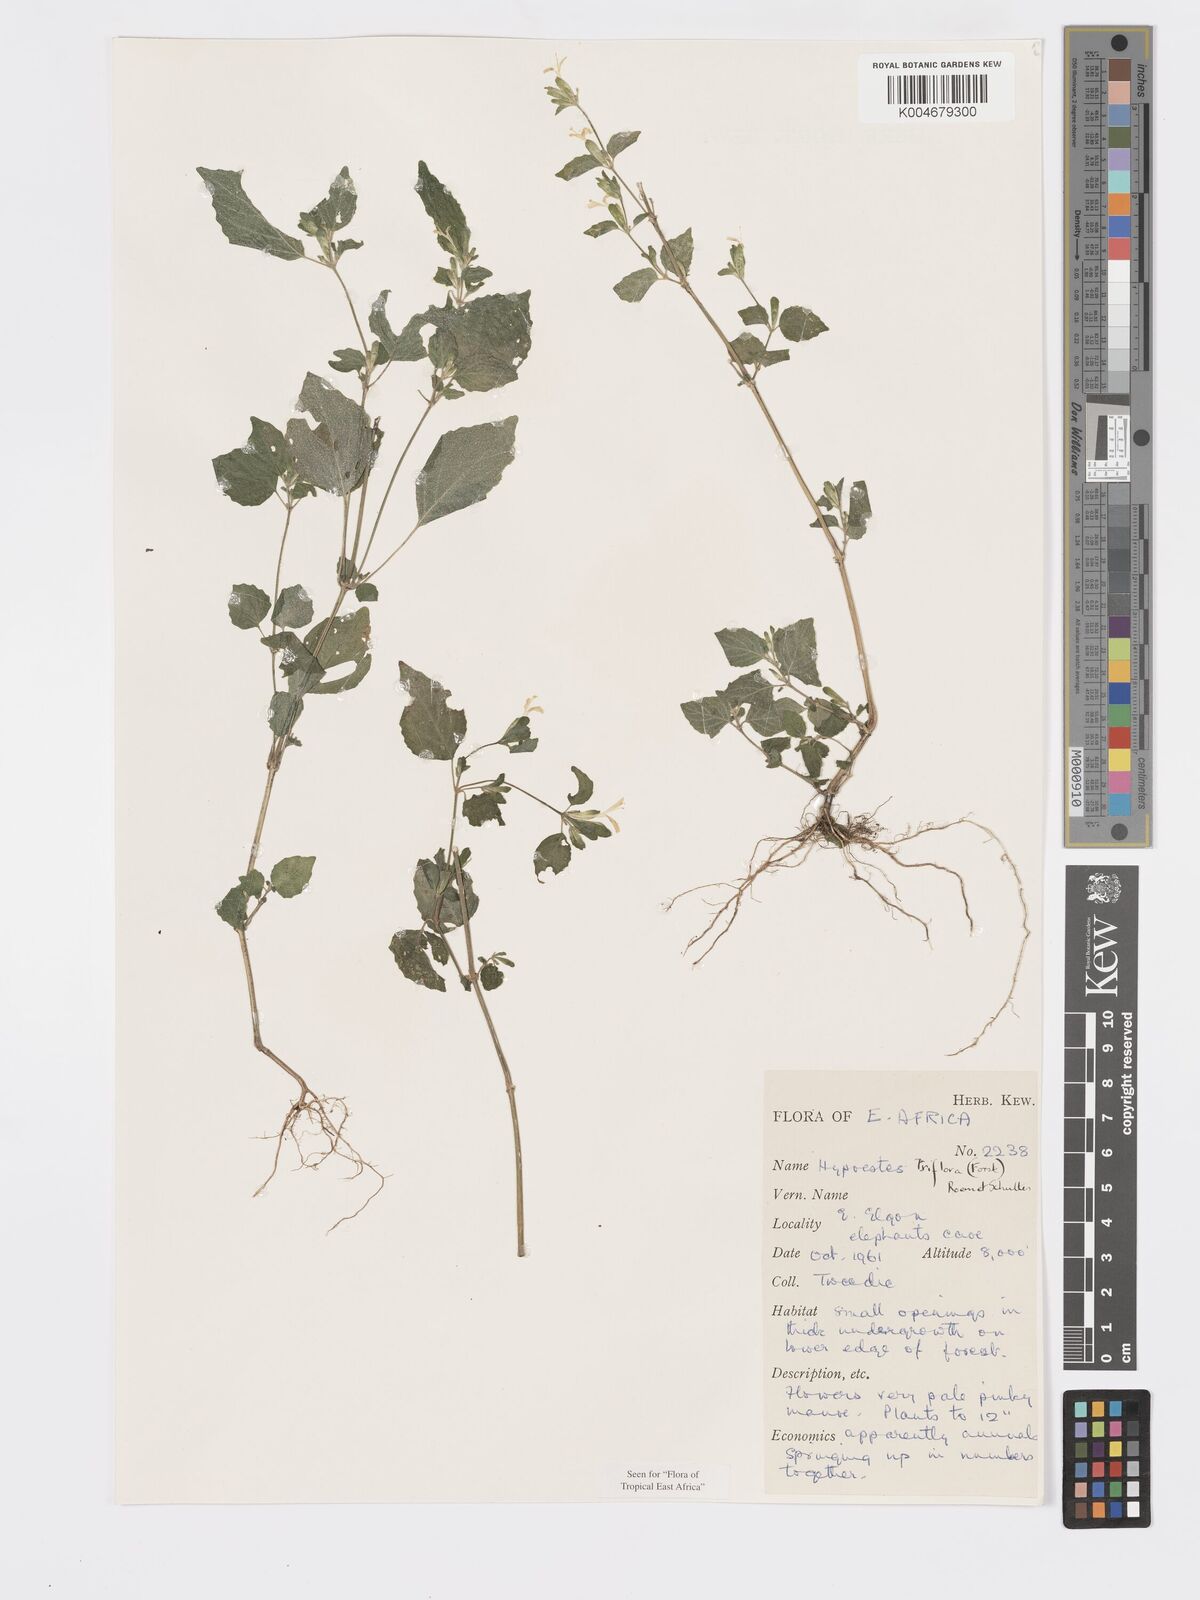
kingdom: Plantae
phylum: Tracheophyta
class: Magnoliopsida
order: Lamiales
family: Acanthaceae
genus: Hypoestes
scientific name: Hypoestes triflora
